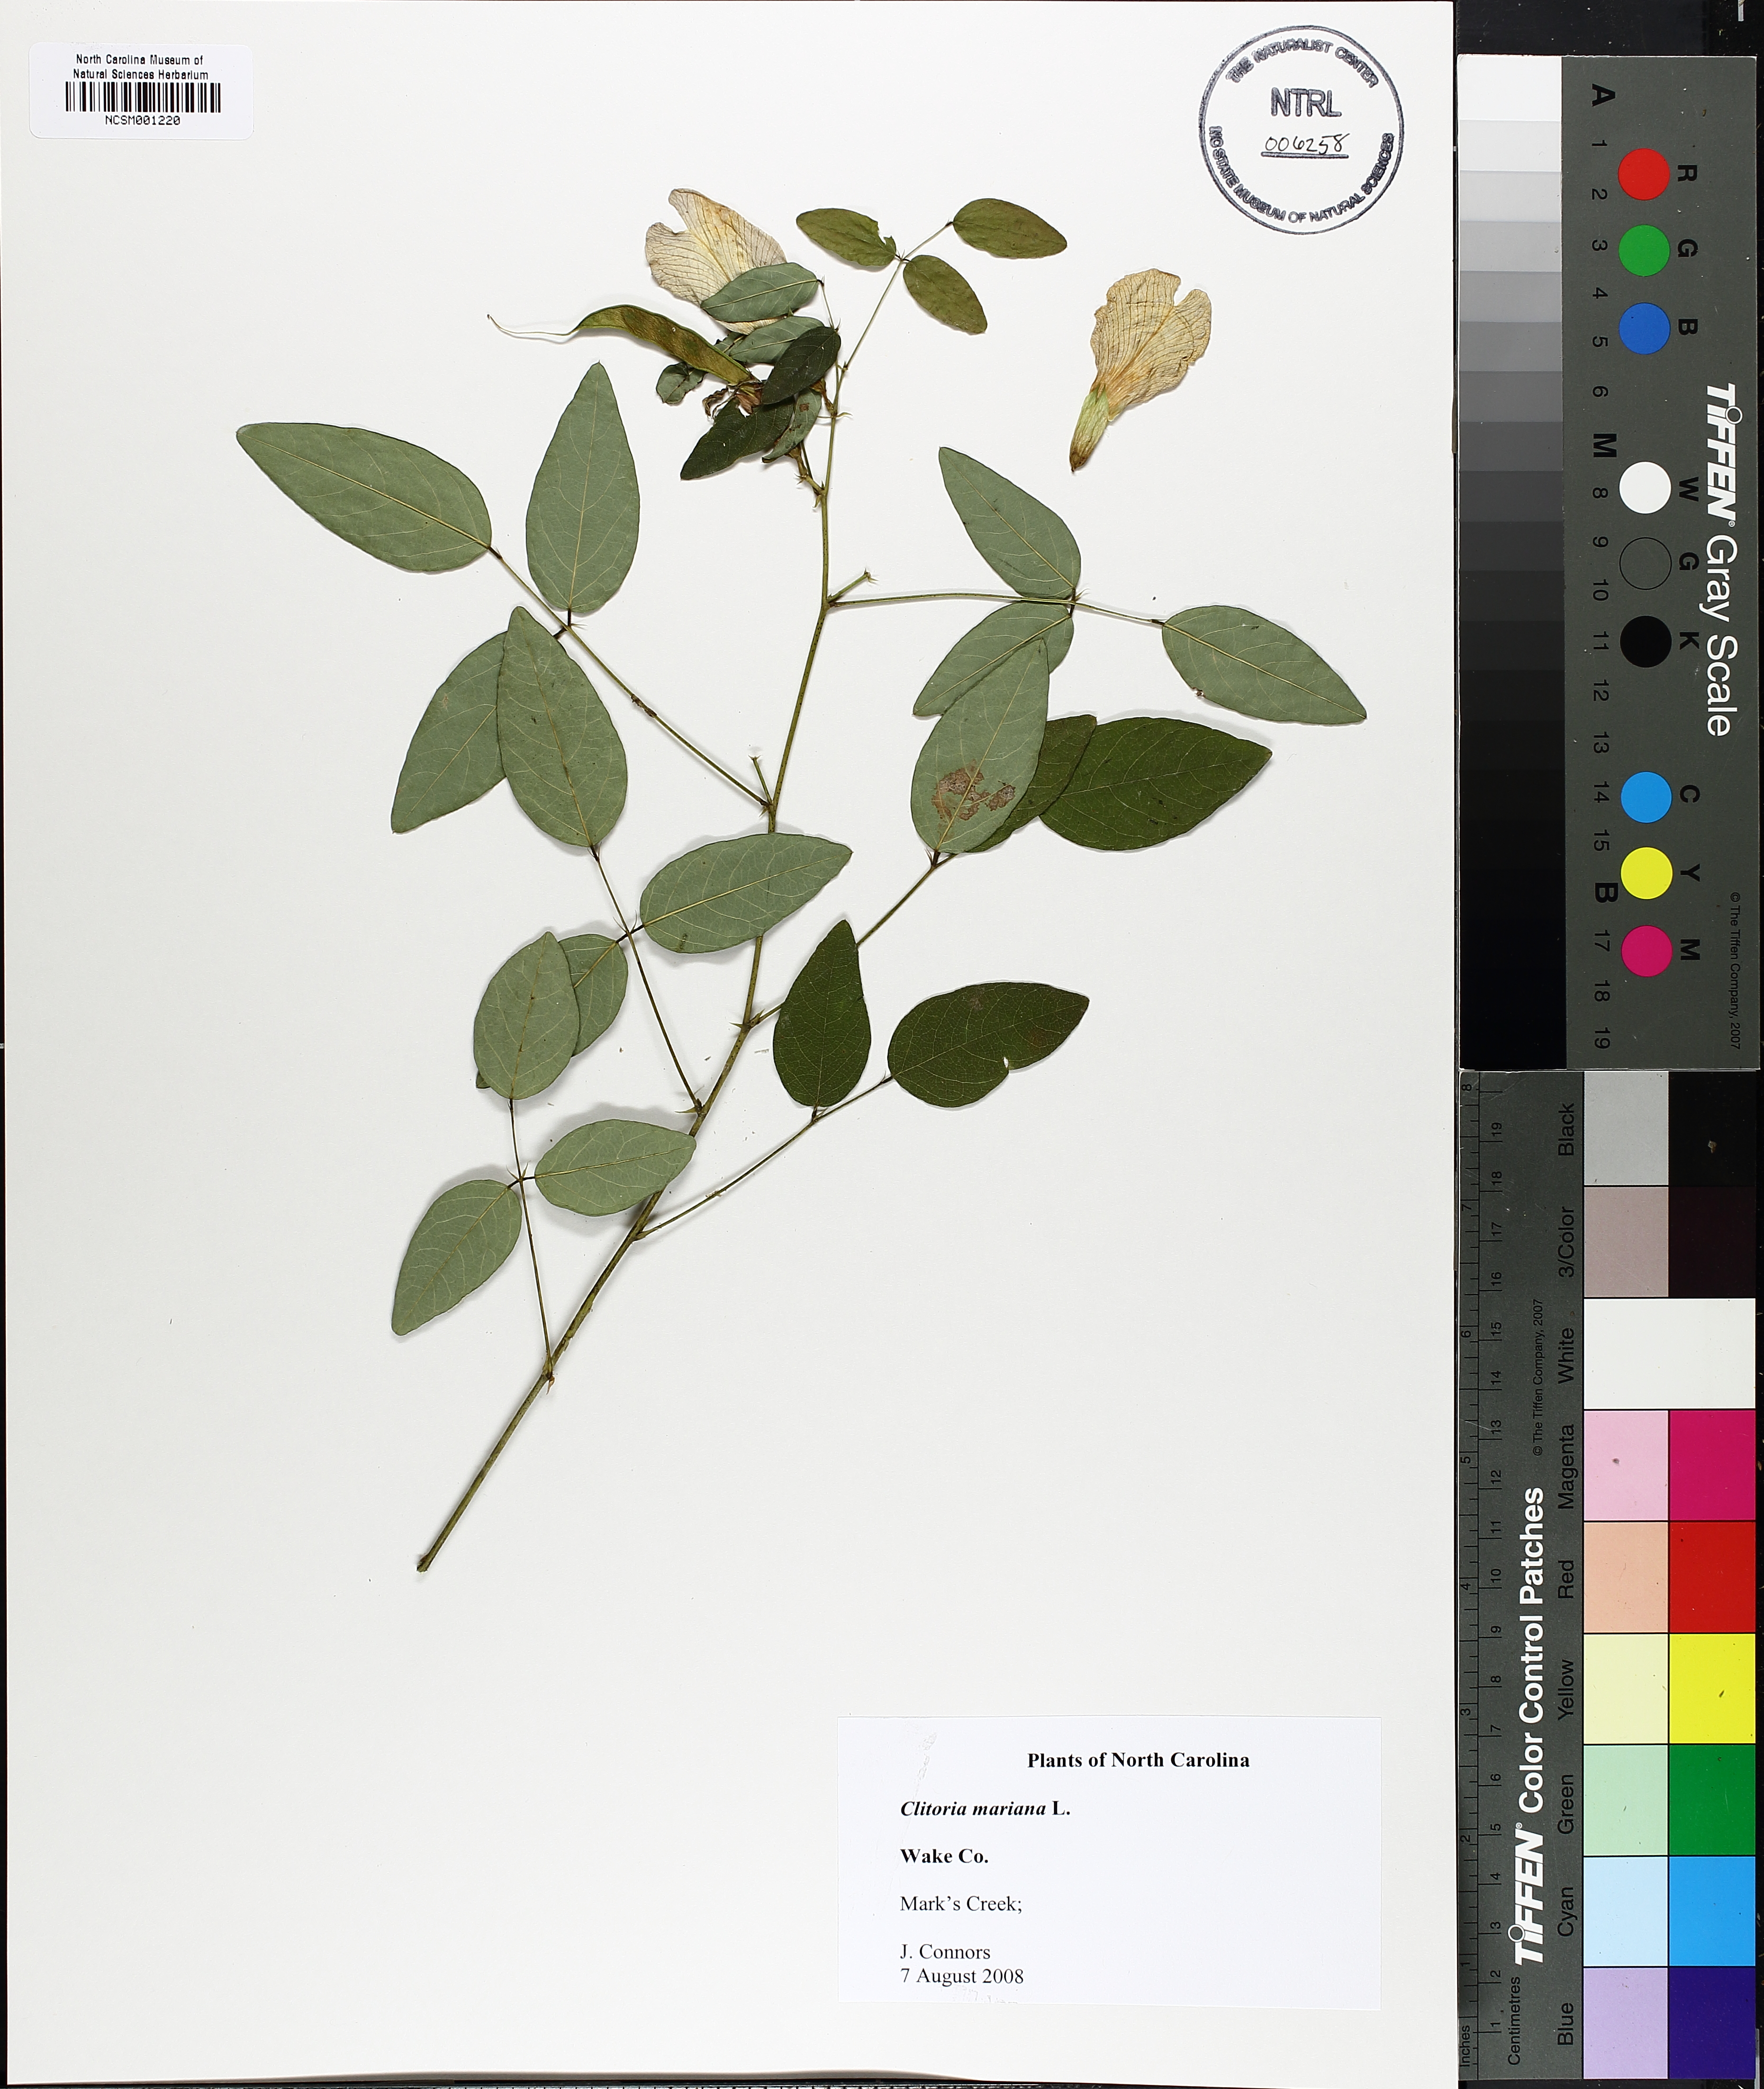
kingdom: Plantae
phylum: Tracheophyta
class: Magnoliopsida
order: Fabales
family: Fabaceae
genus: Clitoria
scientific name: Clitoria mariana
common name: Butterfly-pea
